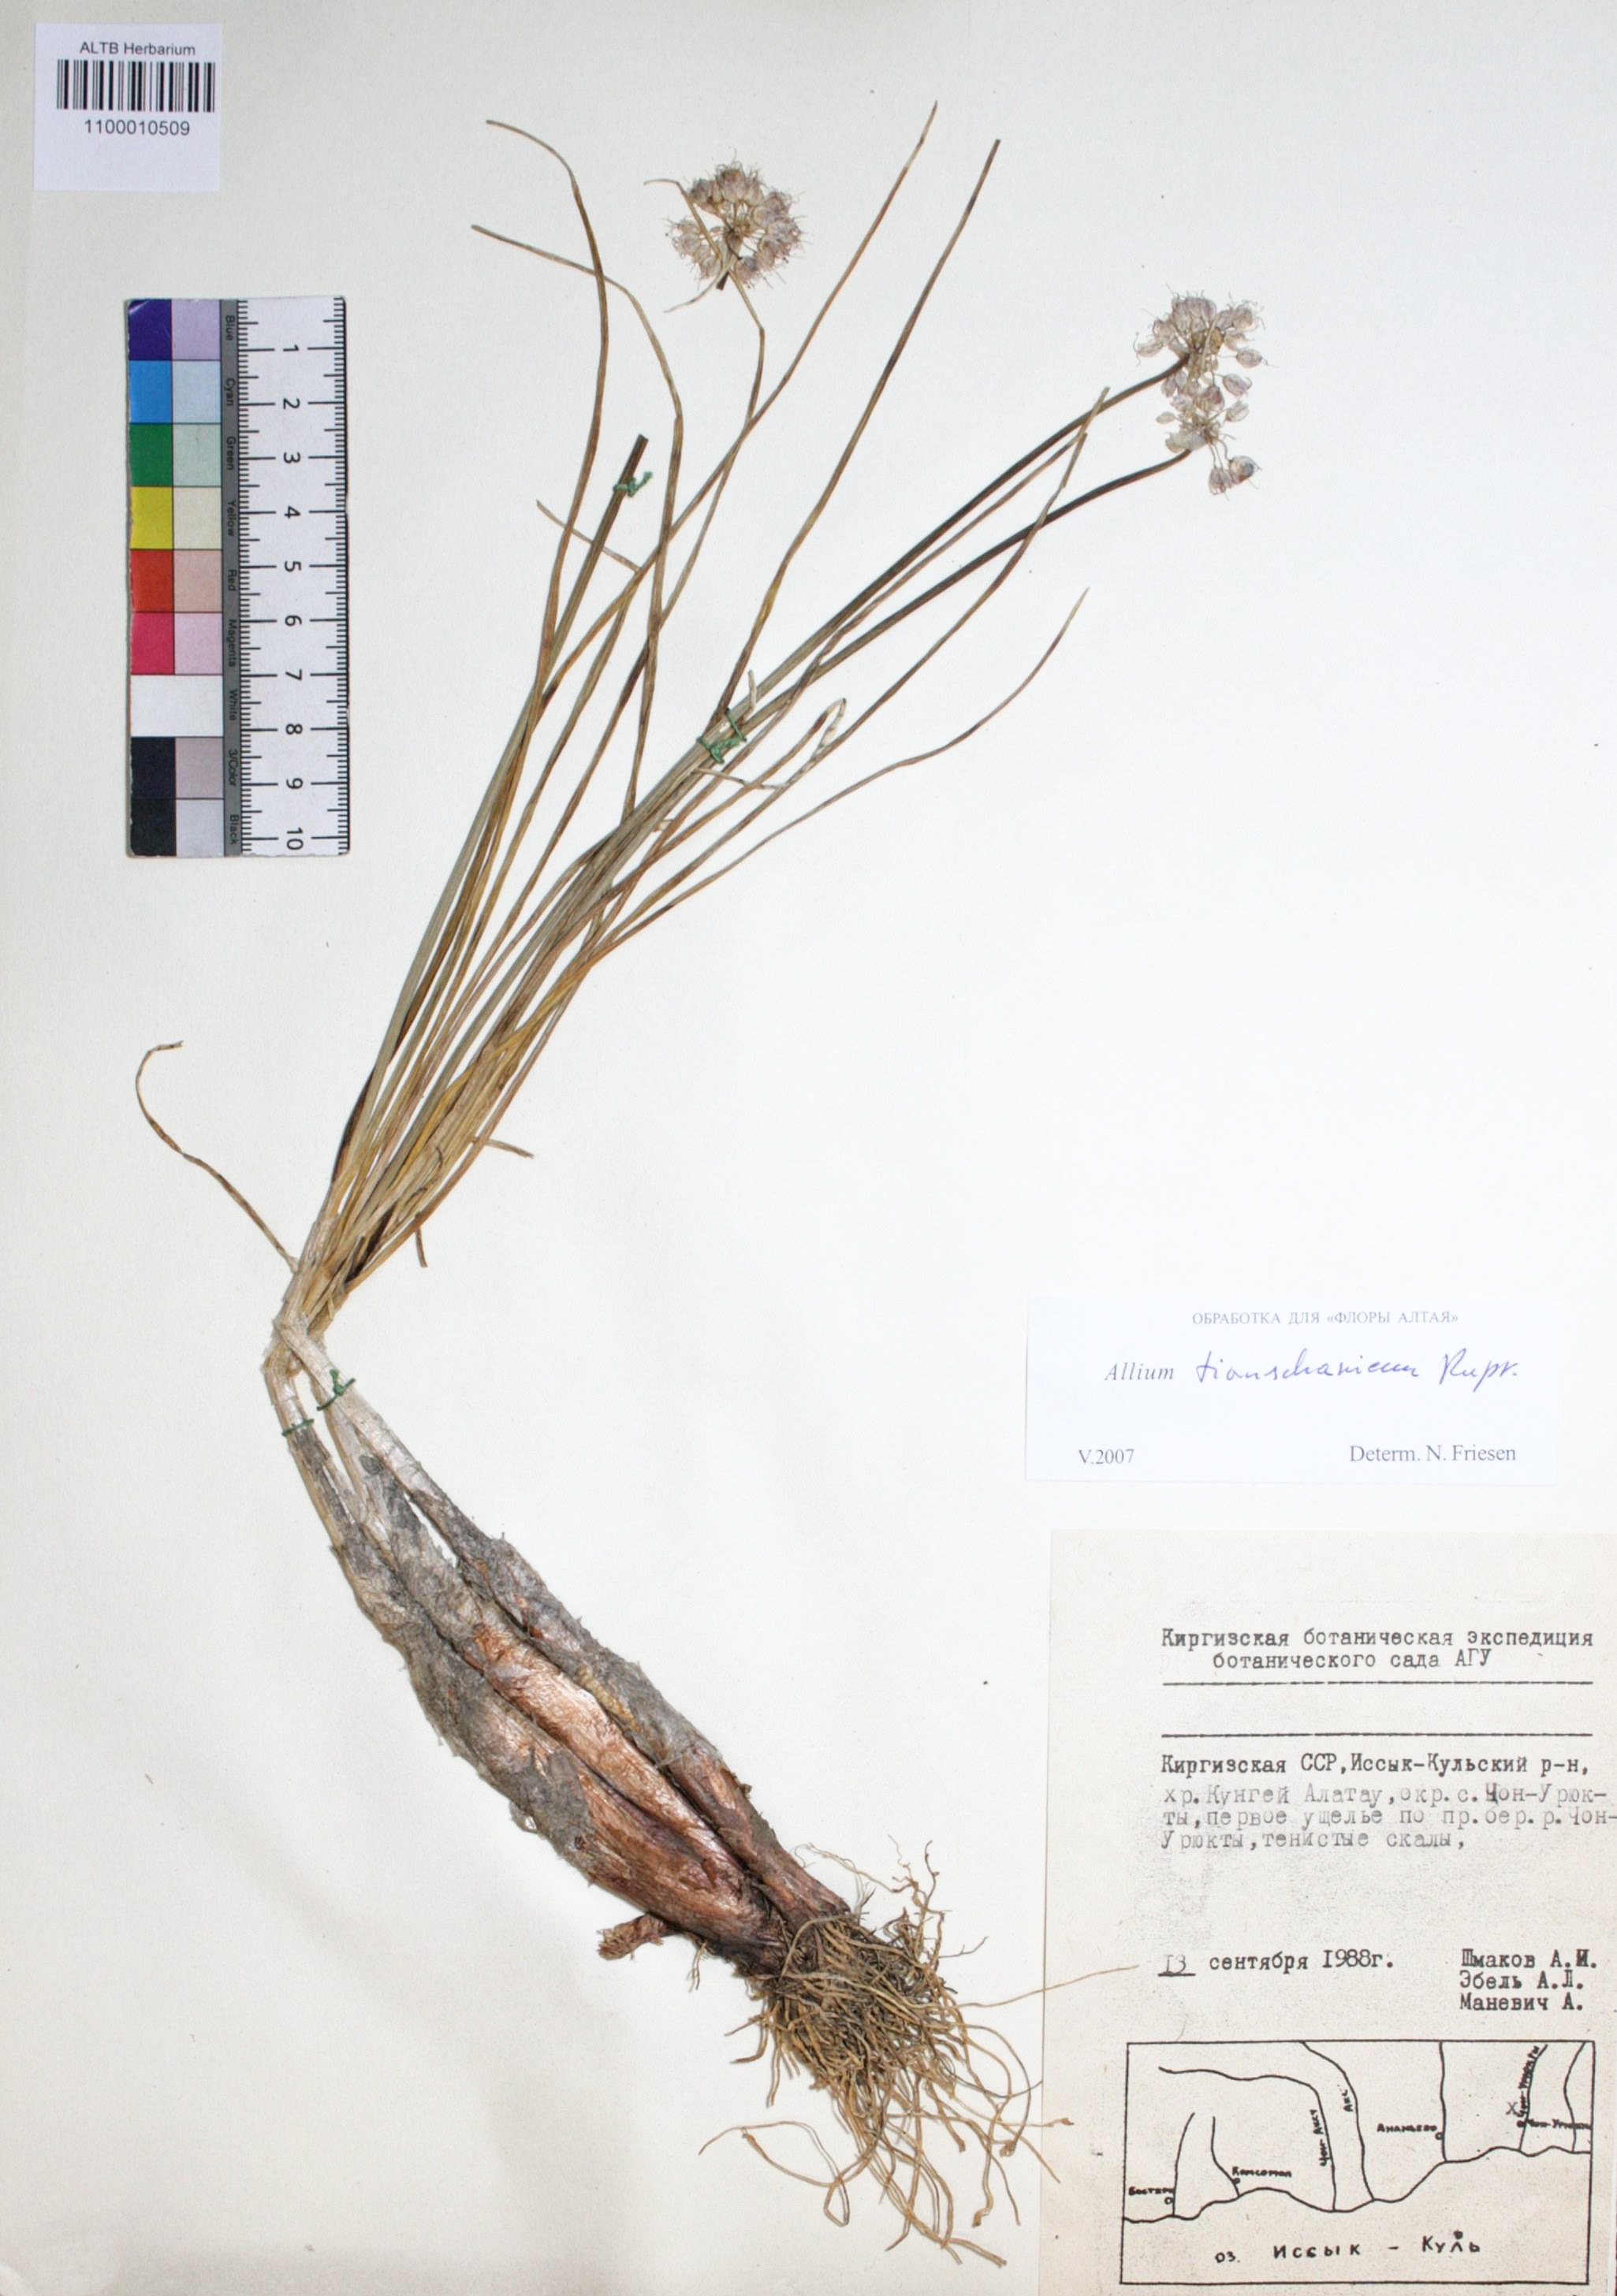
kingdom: Plantae
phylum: Tracheophyta
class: Liliopsida
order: Asparagales
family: Amaryllidaceae
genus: Allium
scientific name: Allium tianschanicum
